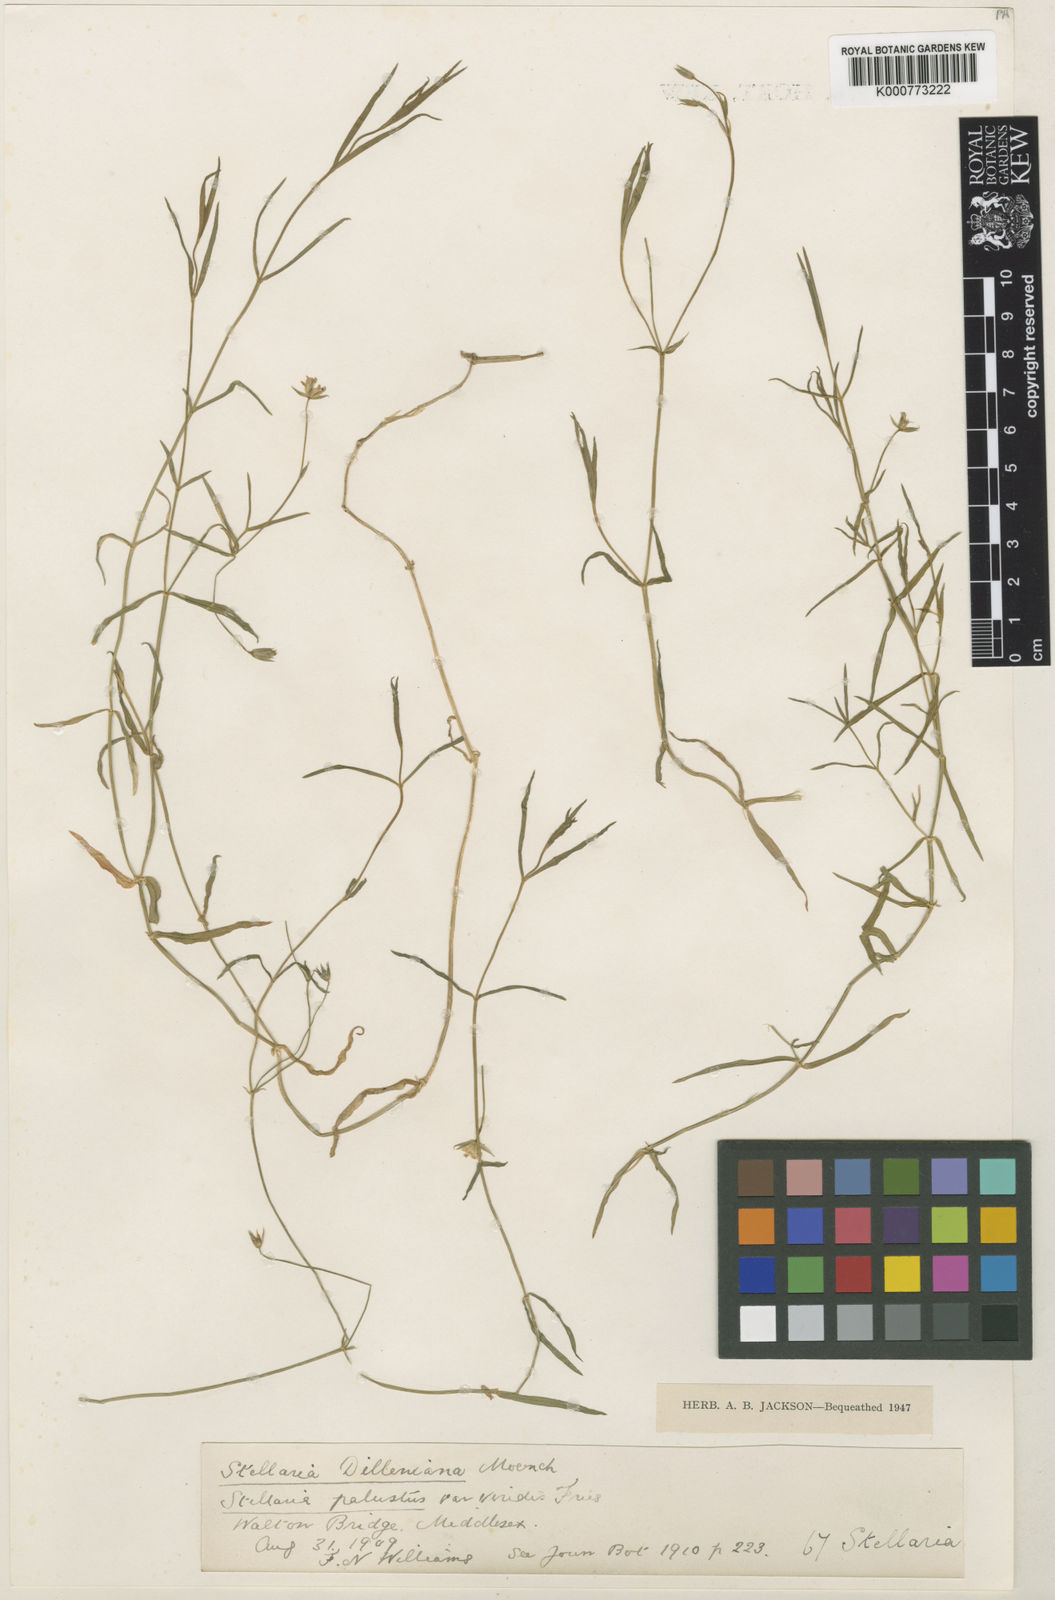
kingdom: Plantae
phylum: Tracheophyta
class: Magnoliopsida
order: Caryophyllales
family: Caryophyllaceae
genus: Stellaria
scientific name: Stellaria
